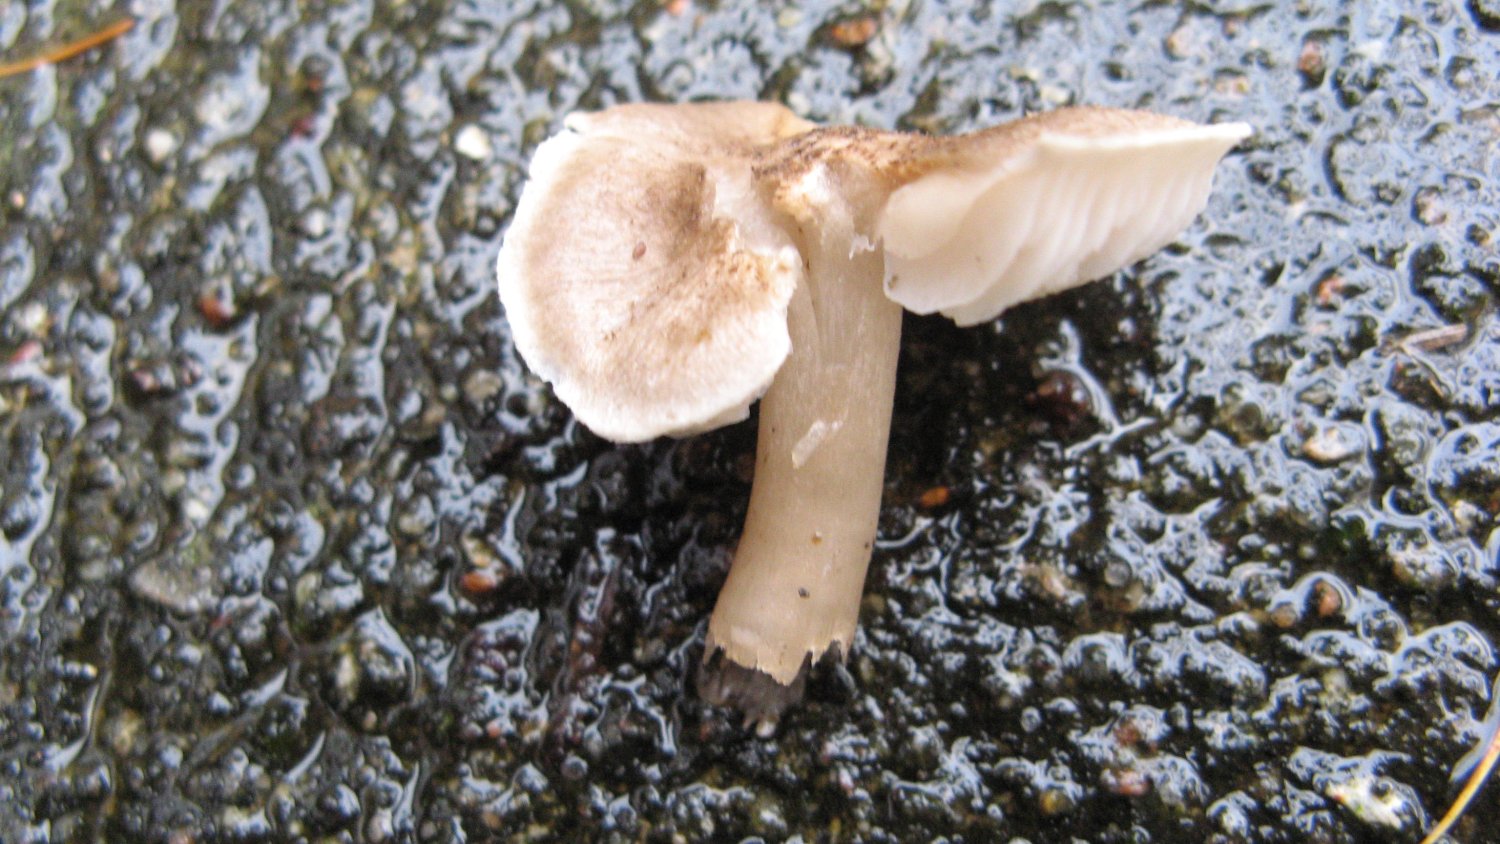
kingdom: Fungi
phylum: Basidiomycota
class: Agaricomycetes
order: Agaricales
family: Tricholomataceae
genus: Tricholoma
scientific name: Tricholoma argyraceum
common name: slør-ridderhat
